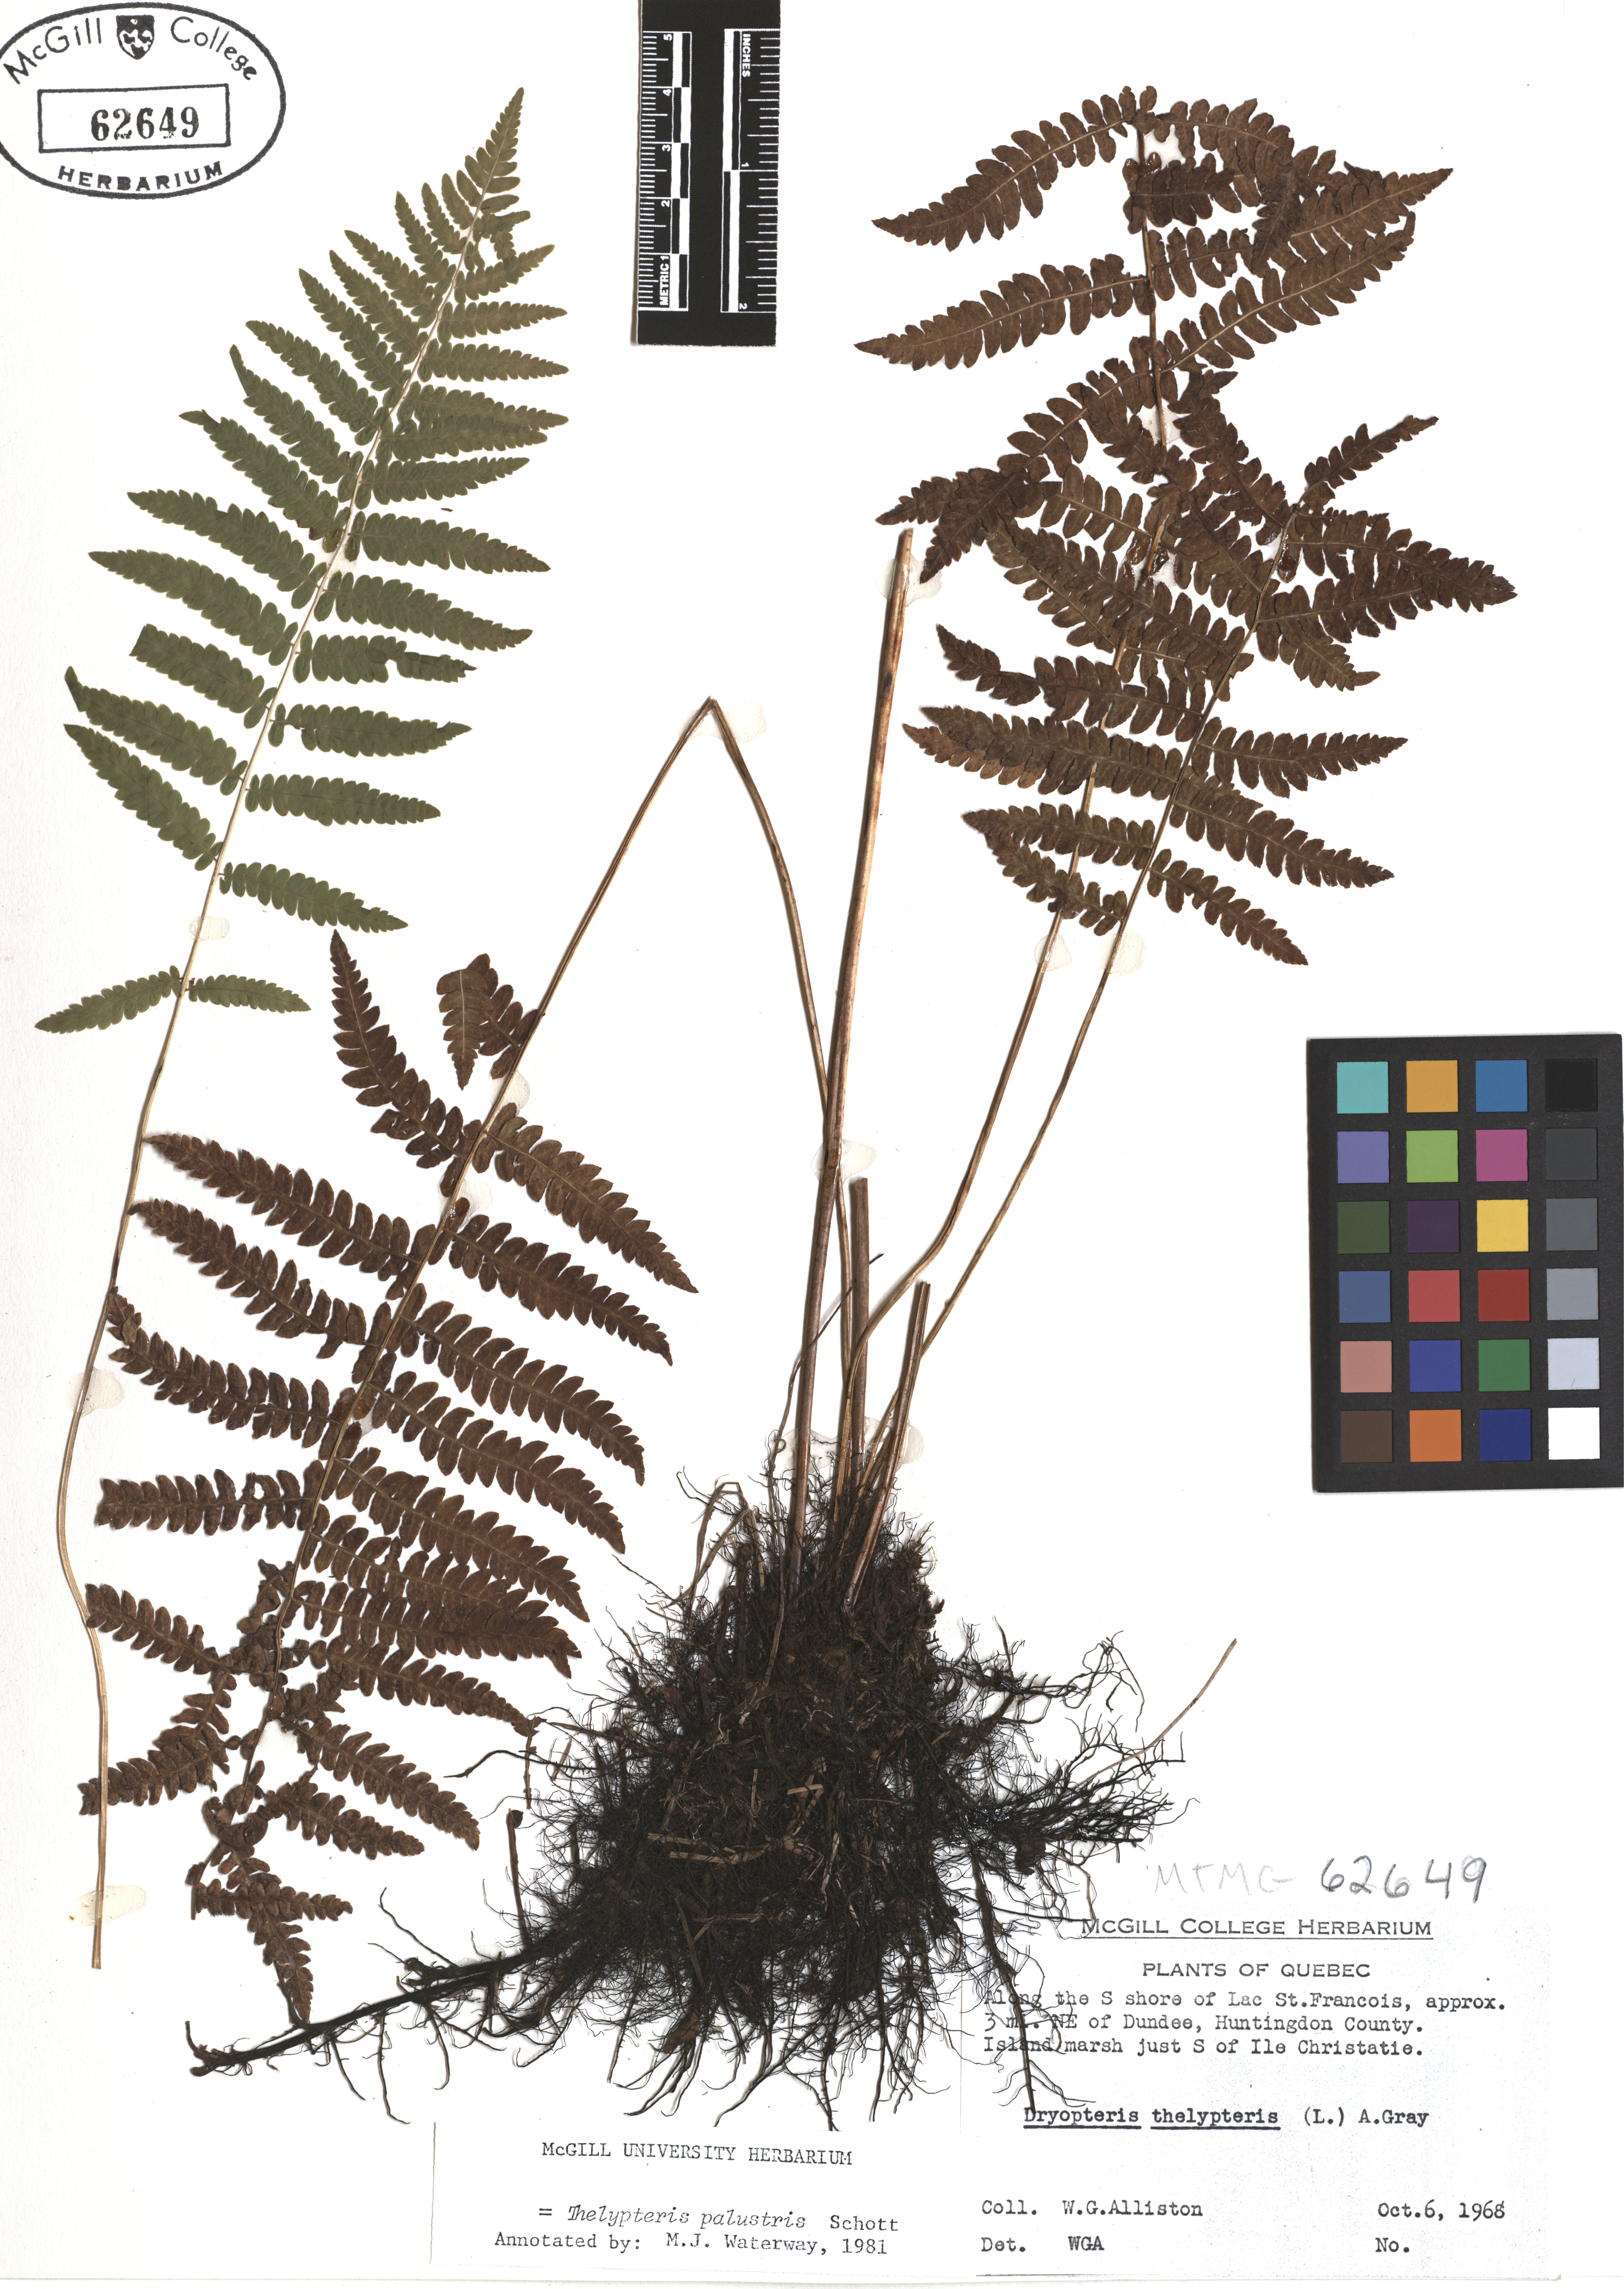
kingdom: Plantae
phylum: Tracheophyta
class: Polypodiopsida
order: Polypodiales
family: Thelypteridaceae
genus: Thelypteris
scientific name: Thelypteris palustris
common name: Marsh fern
